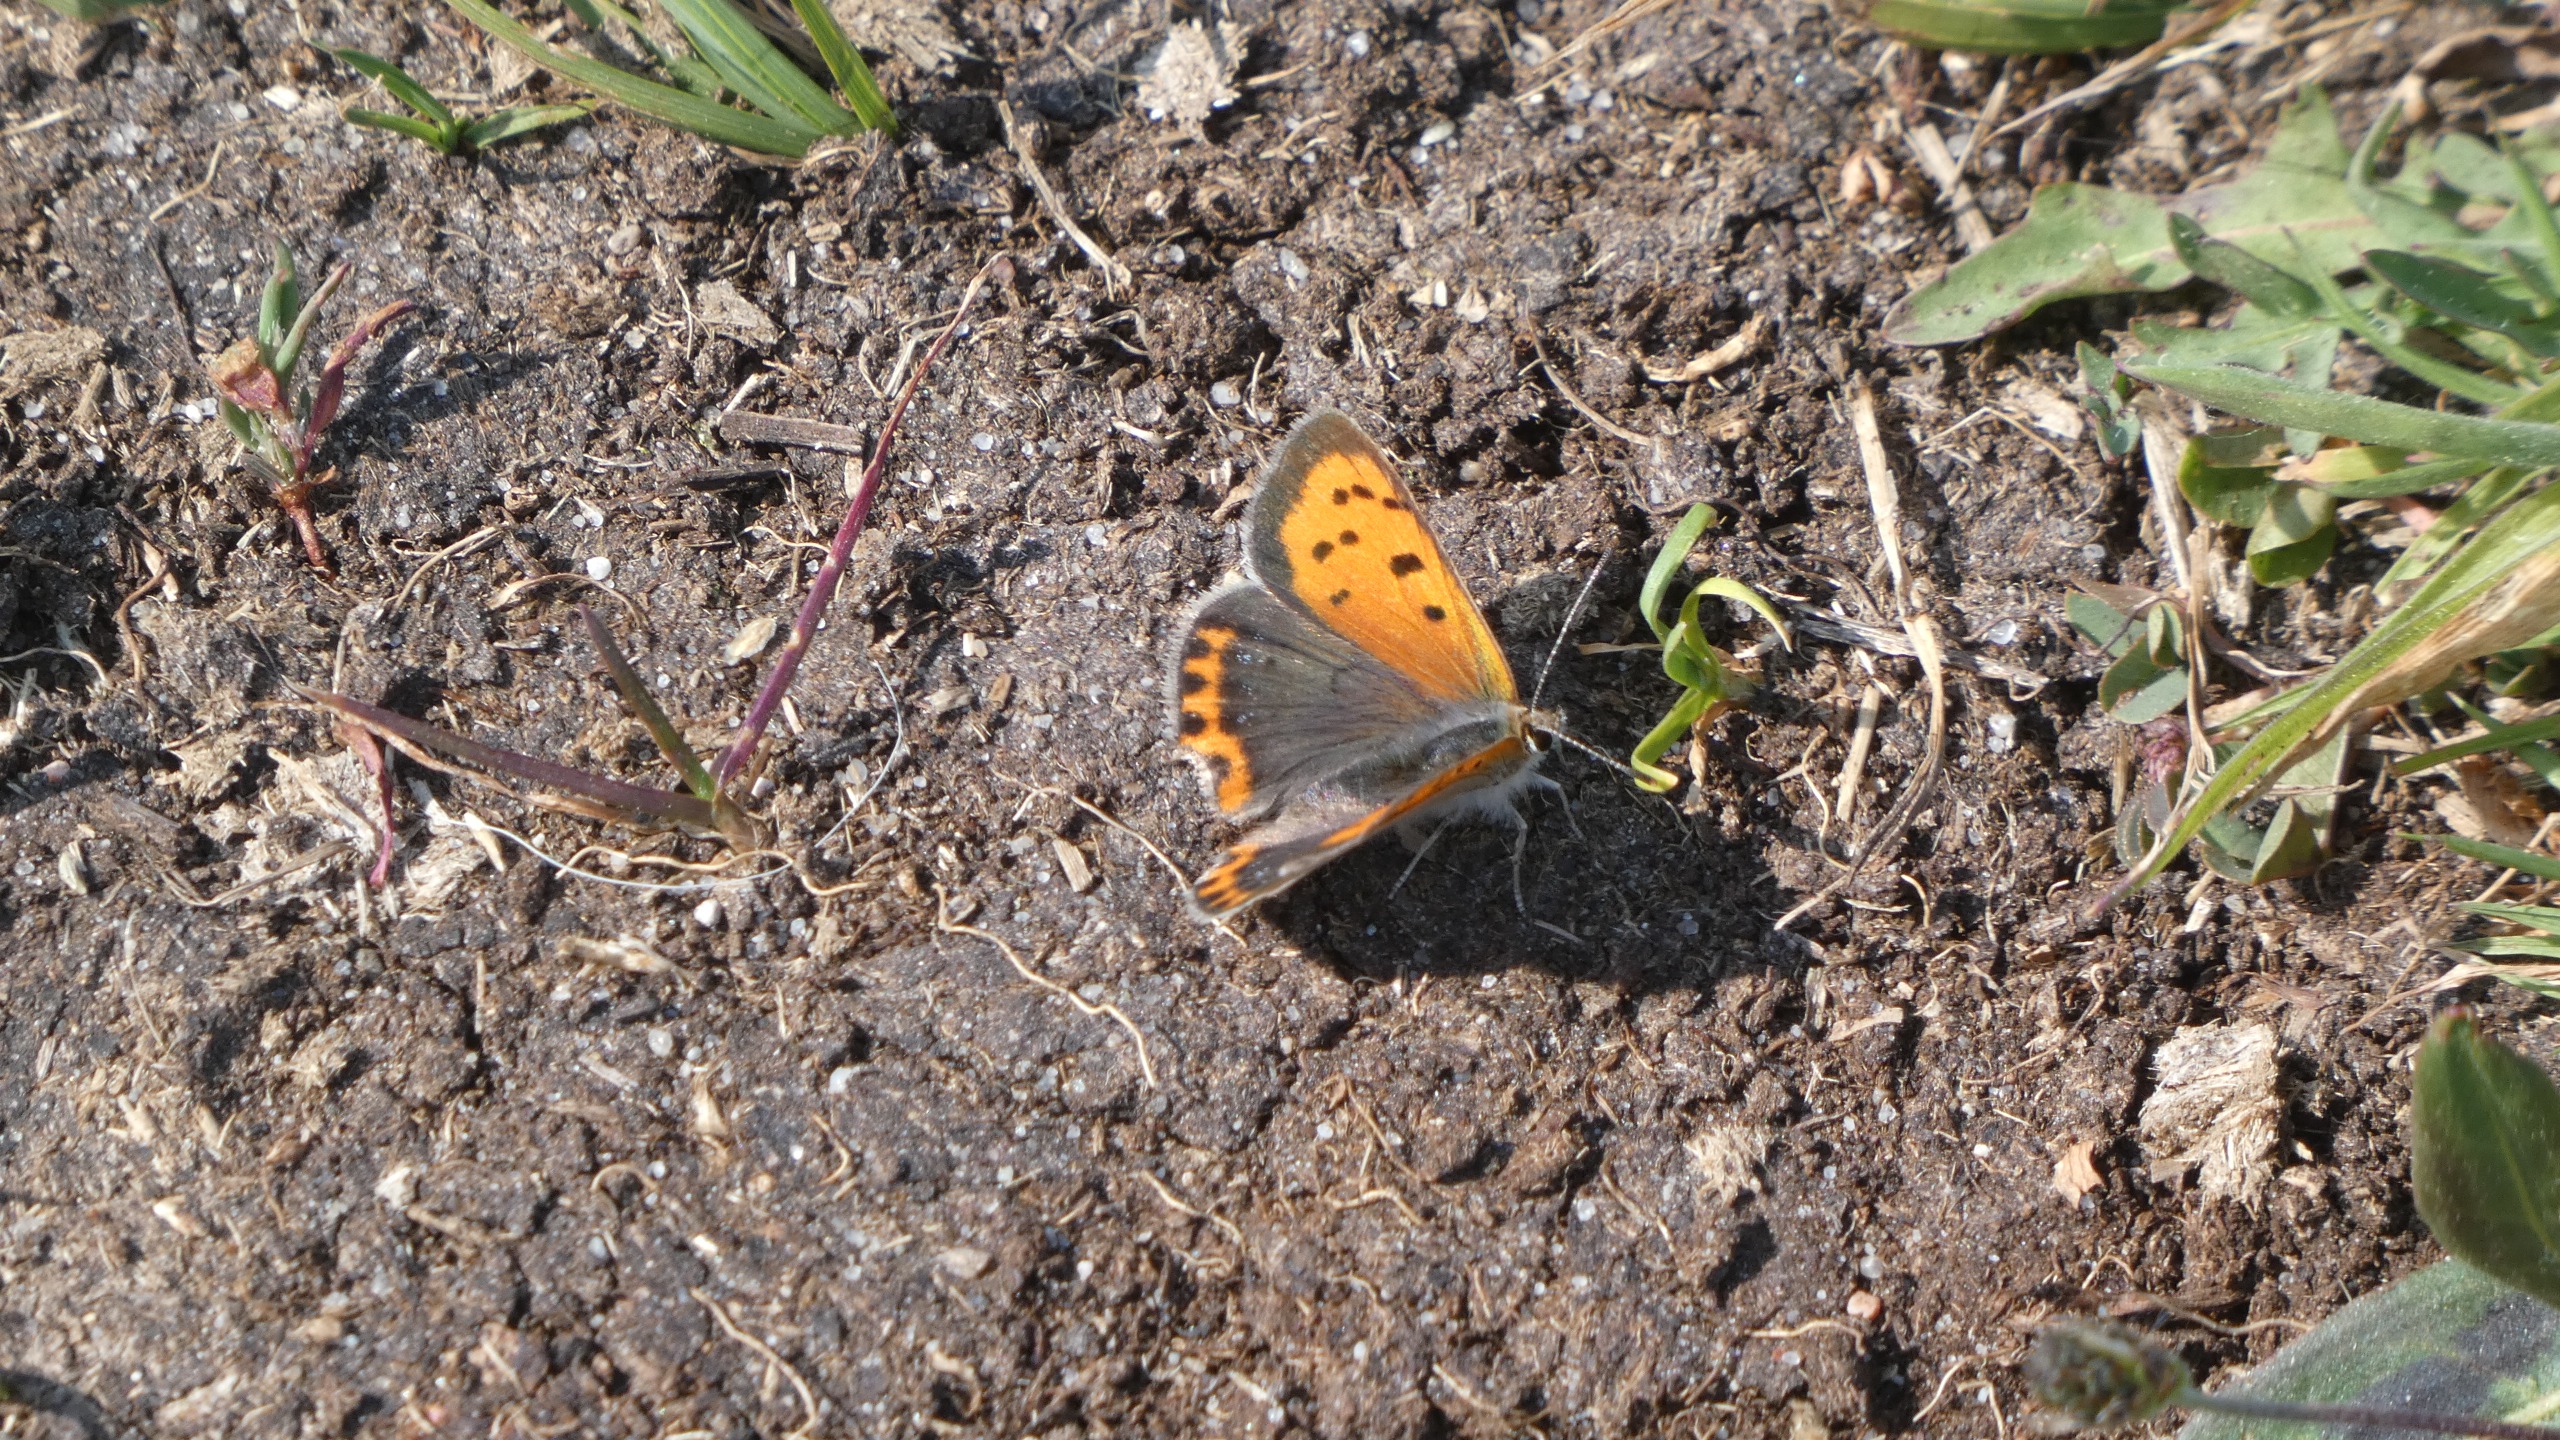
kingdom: Animalia
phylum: Arthropoda
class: Insecta
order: Lepidoptera
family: Lycaenidae
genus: Lycaena
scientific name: Lycaena phlaeas
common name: Lille ildfugl
